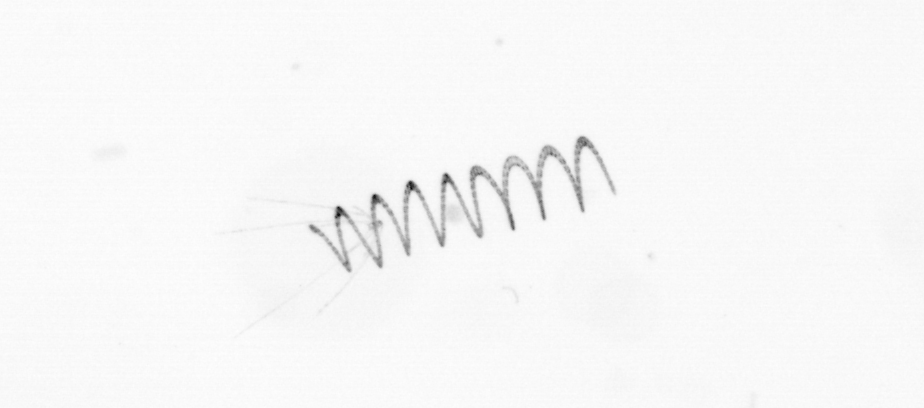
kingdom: Chromista
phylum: Ochrophyta
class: Bacillariophyceae
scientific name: Bacillariophyceae
